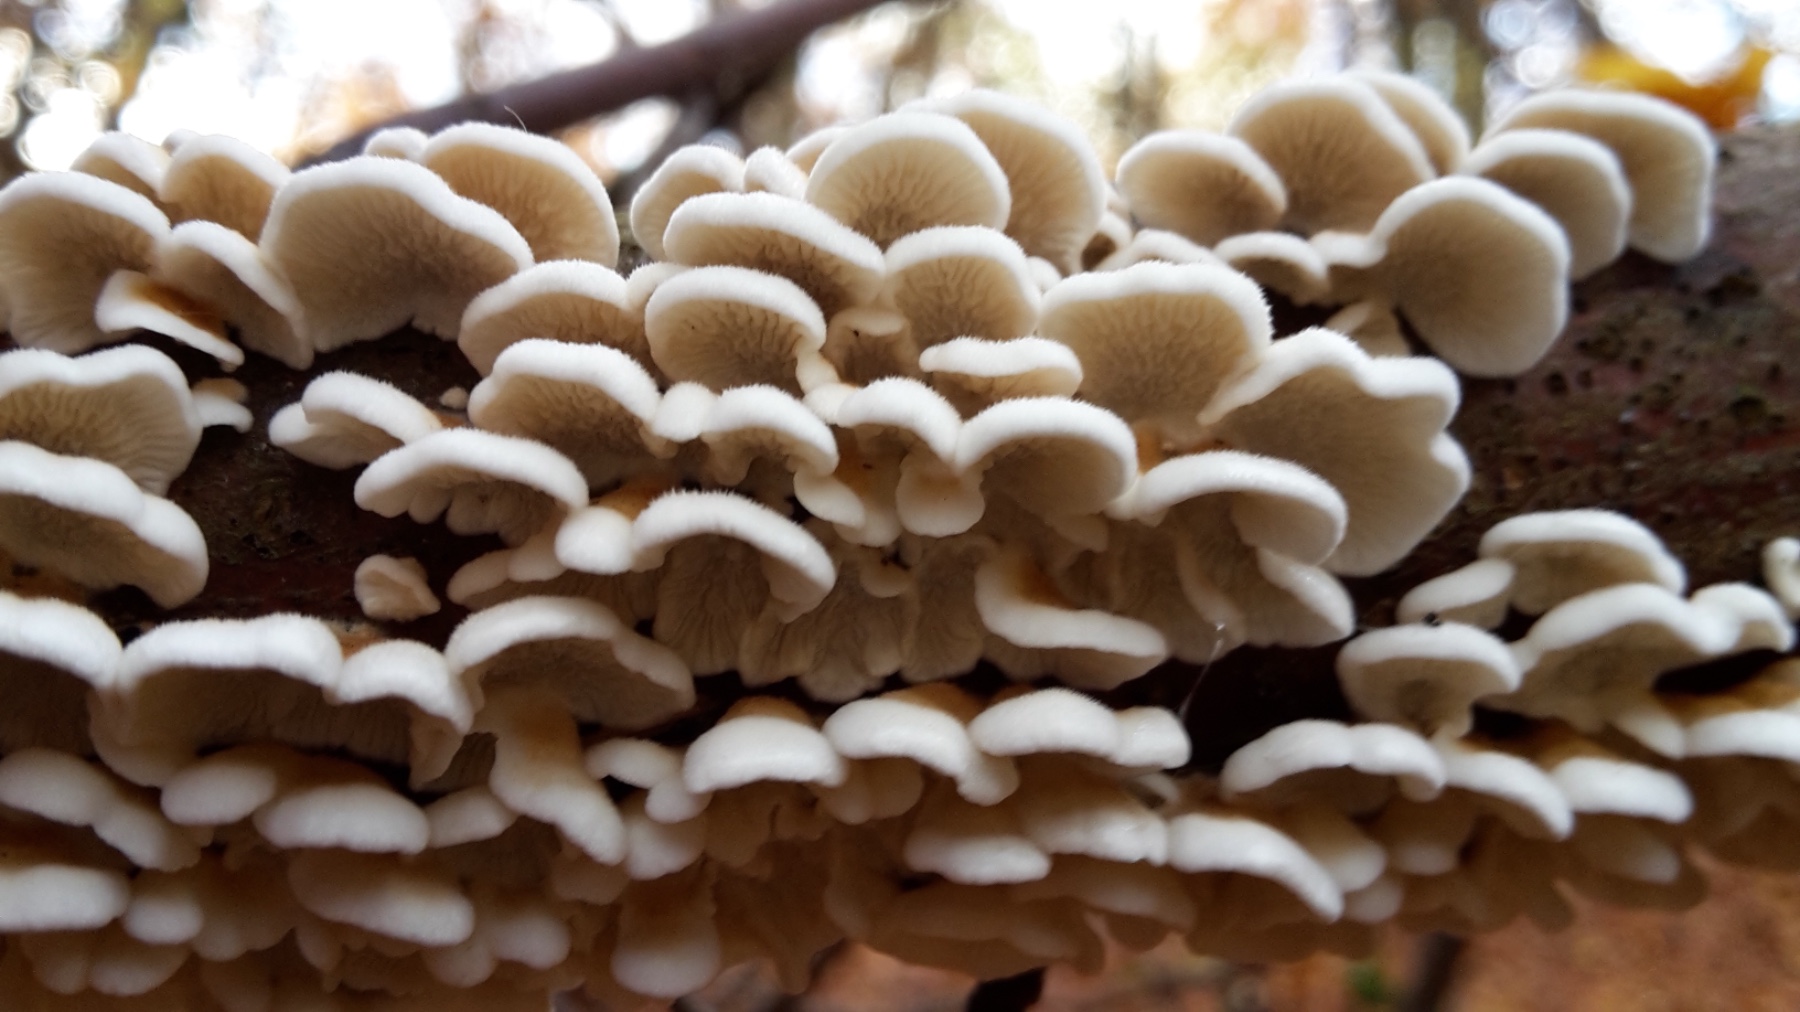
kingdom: Fungi
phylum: Basidiomycota
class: Agaricomycetes
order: Amylocorticiales
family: Amylocorticiaceae
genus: Plicaturopsis
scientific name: Plicaturopsis crispa
